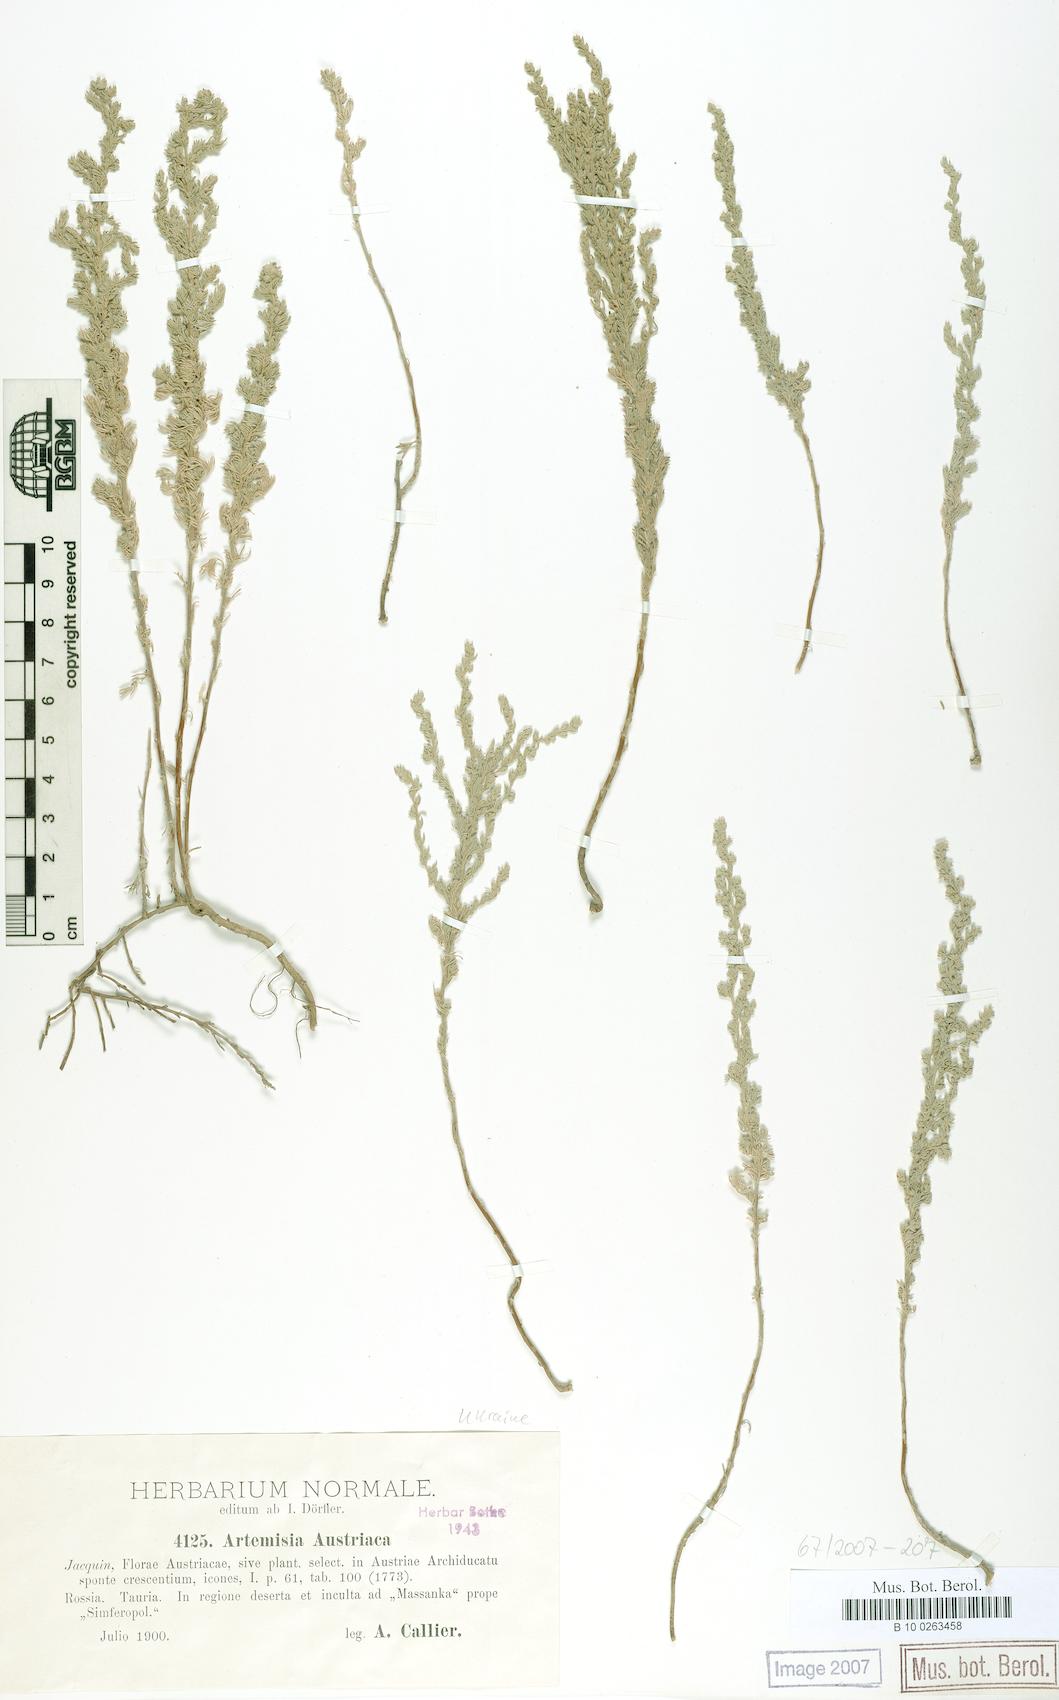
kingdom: Plantae
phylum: Tracheophyta
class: Magnoliopsida
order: Asterales
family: Asteraceae
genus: Artemisia
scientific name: Artemisia austriaca
